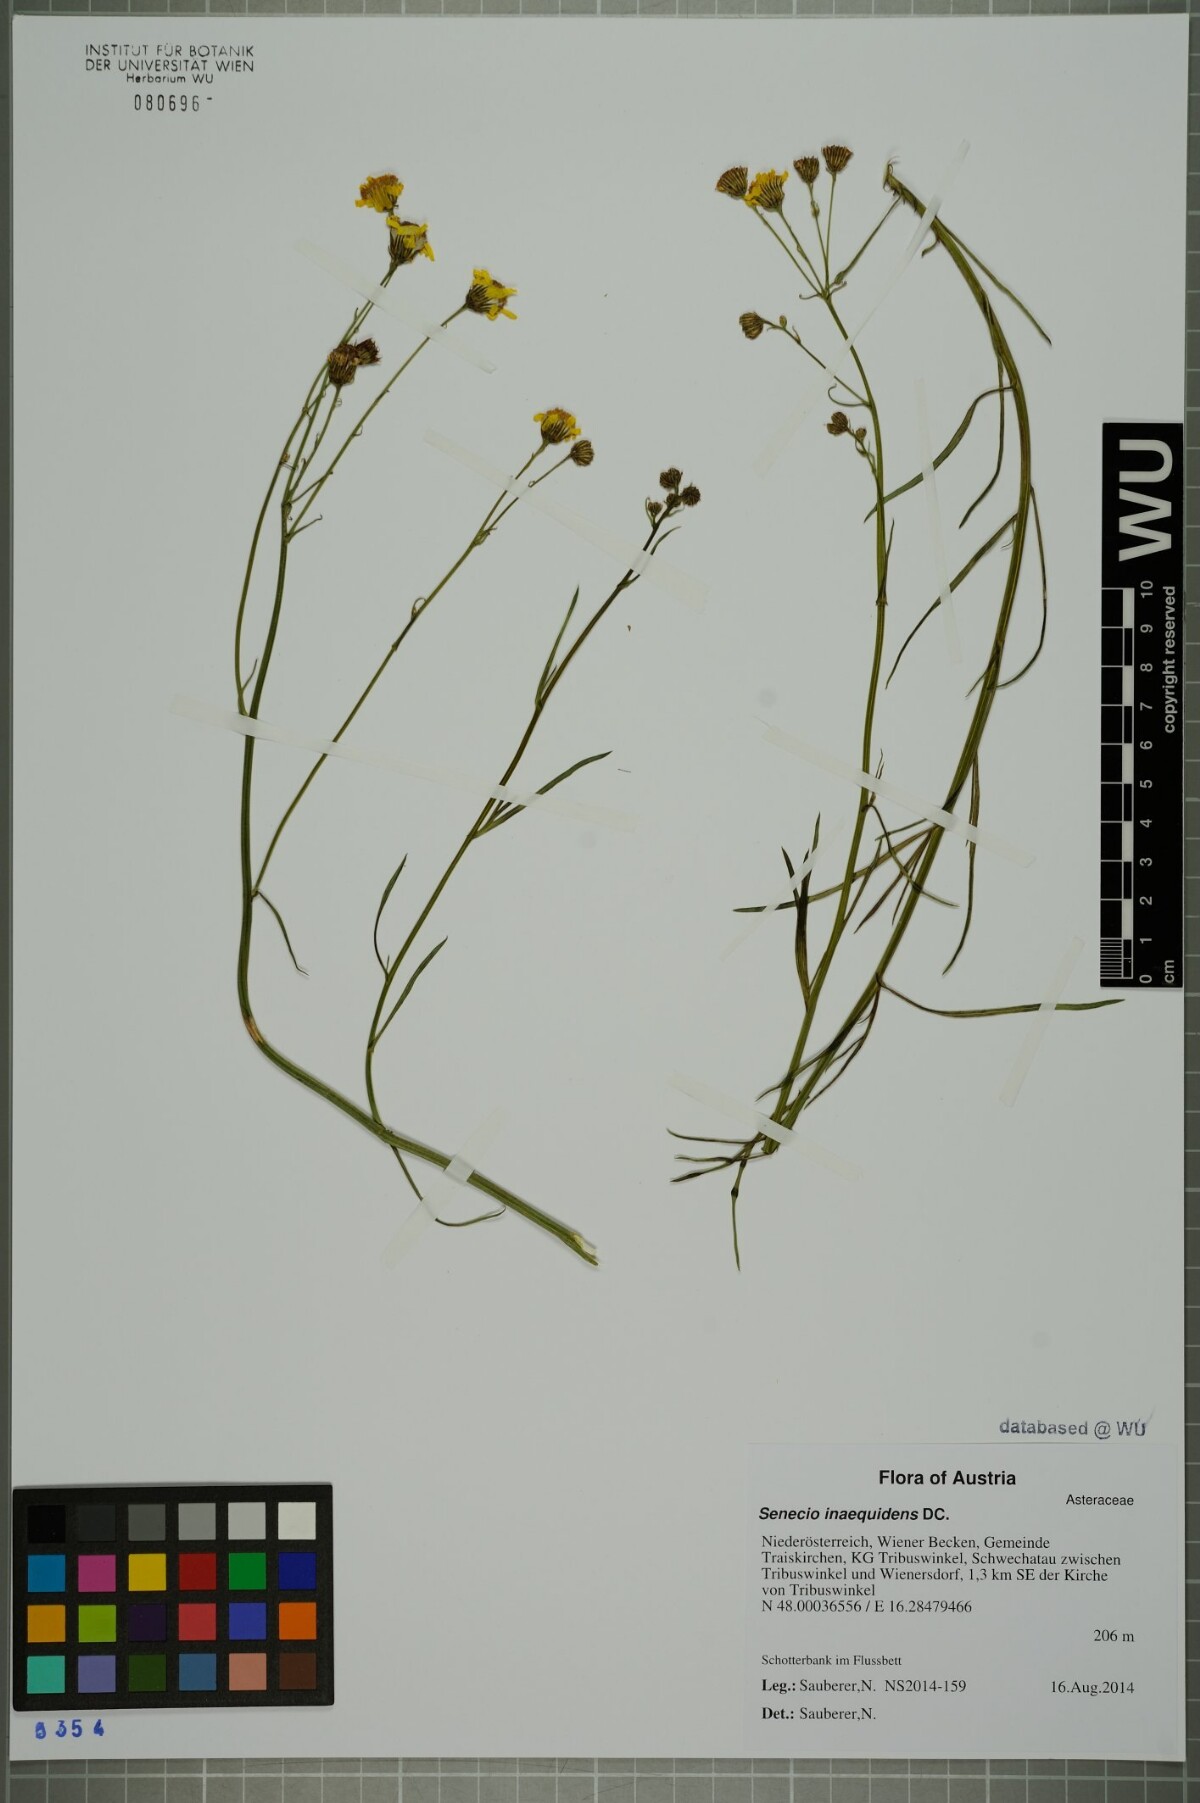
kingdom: Plantae
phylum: Tracheophyta
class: Magnoliopsida
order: Asterales
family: Asteraceae
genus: Senecio
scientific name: Senecio inaequidens
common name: Narrow-leaved ragwort
